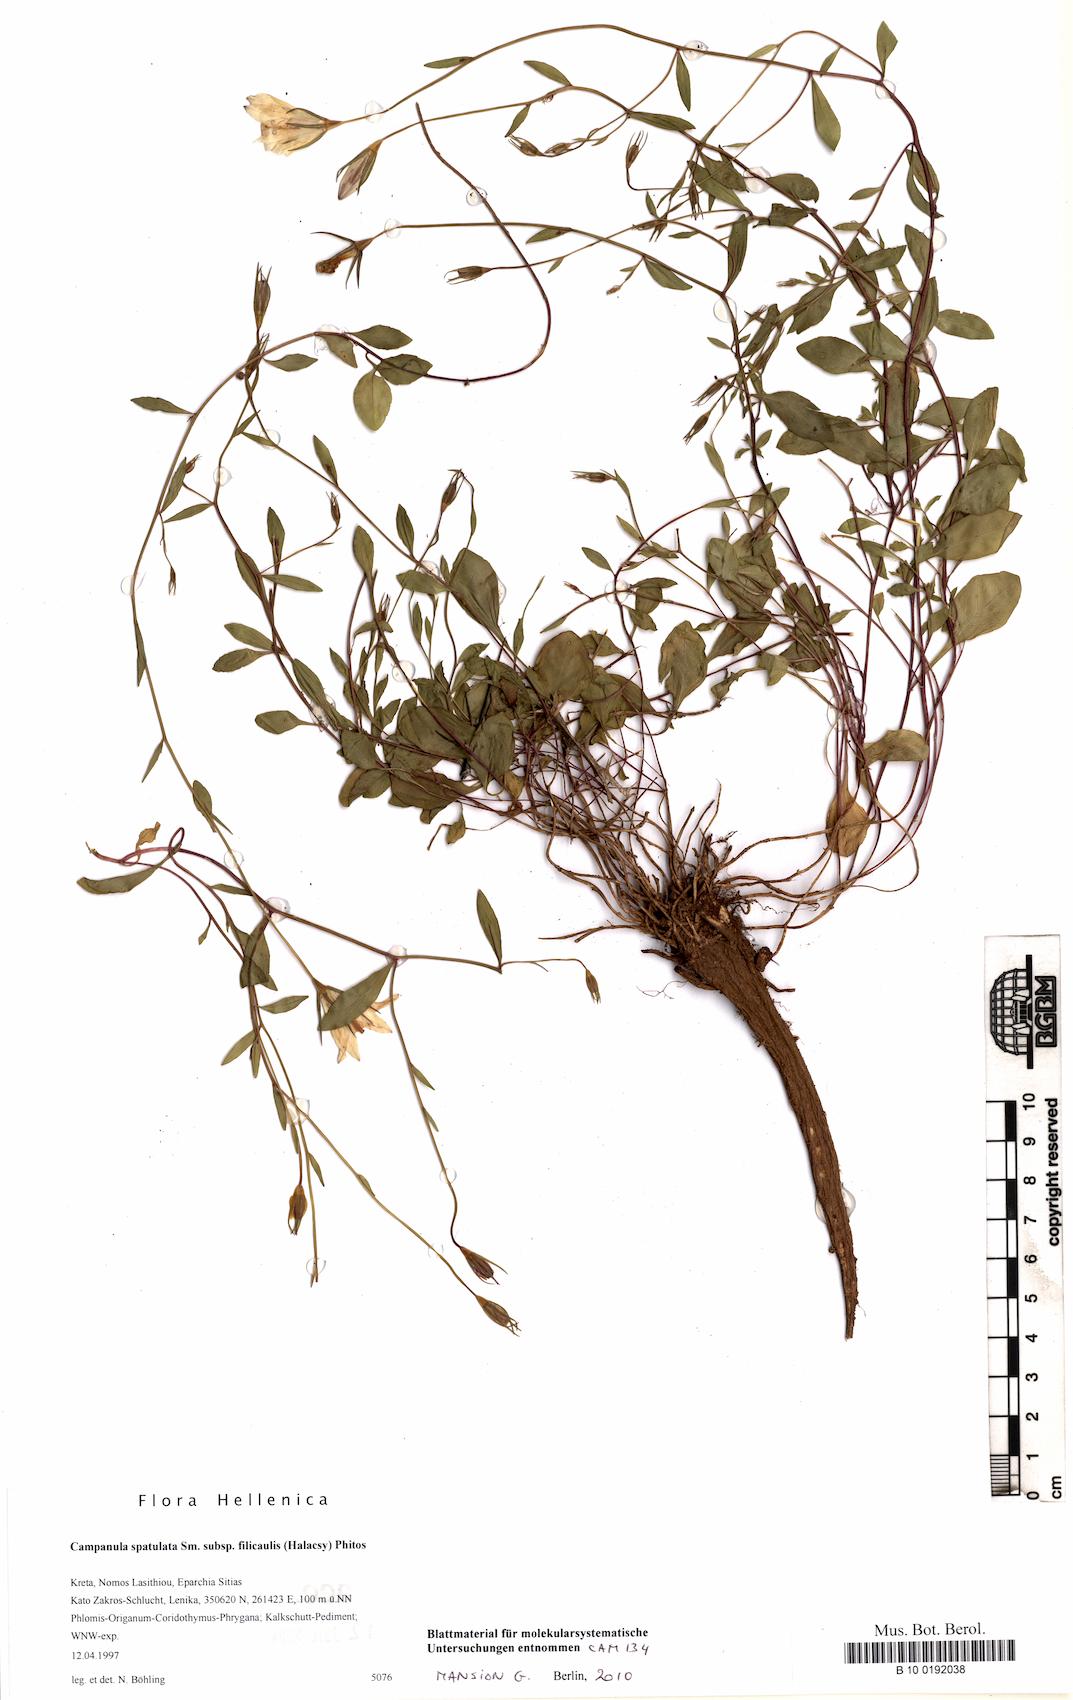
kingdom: Plantae
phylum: Tracheophyta
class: Magnoliopsida
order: Asterales
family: Campanulaceae
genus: Campanula
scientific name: Campanula spatulata
